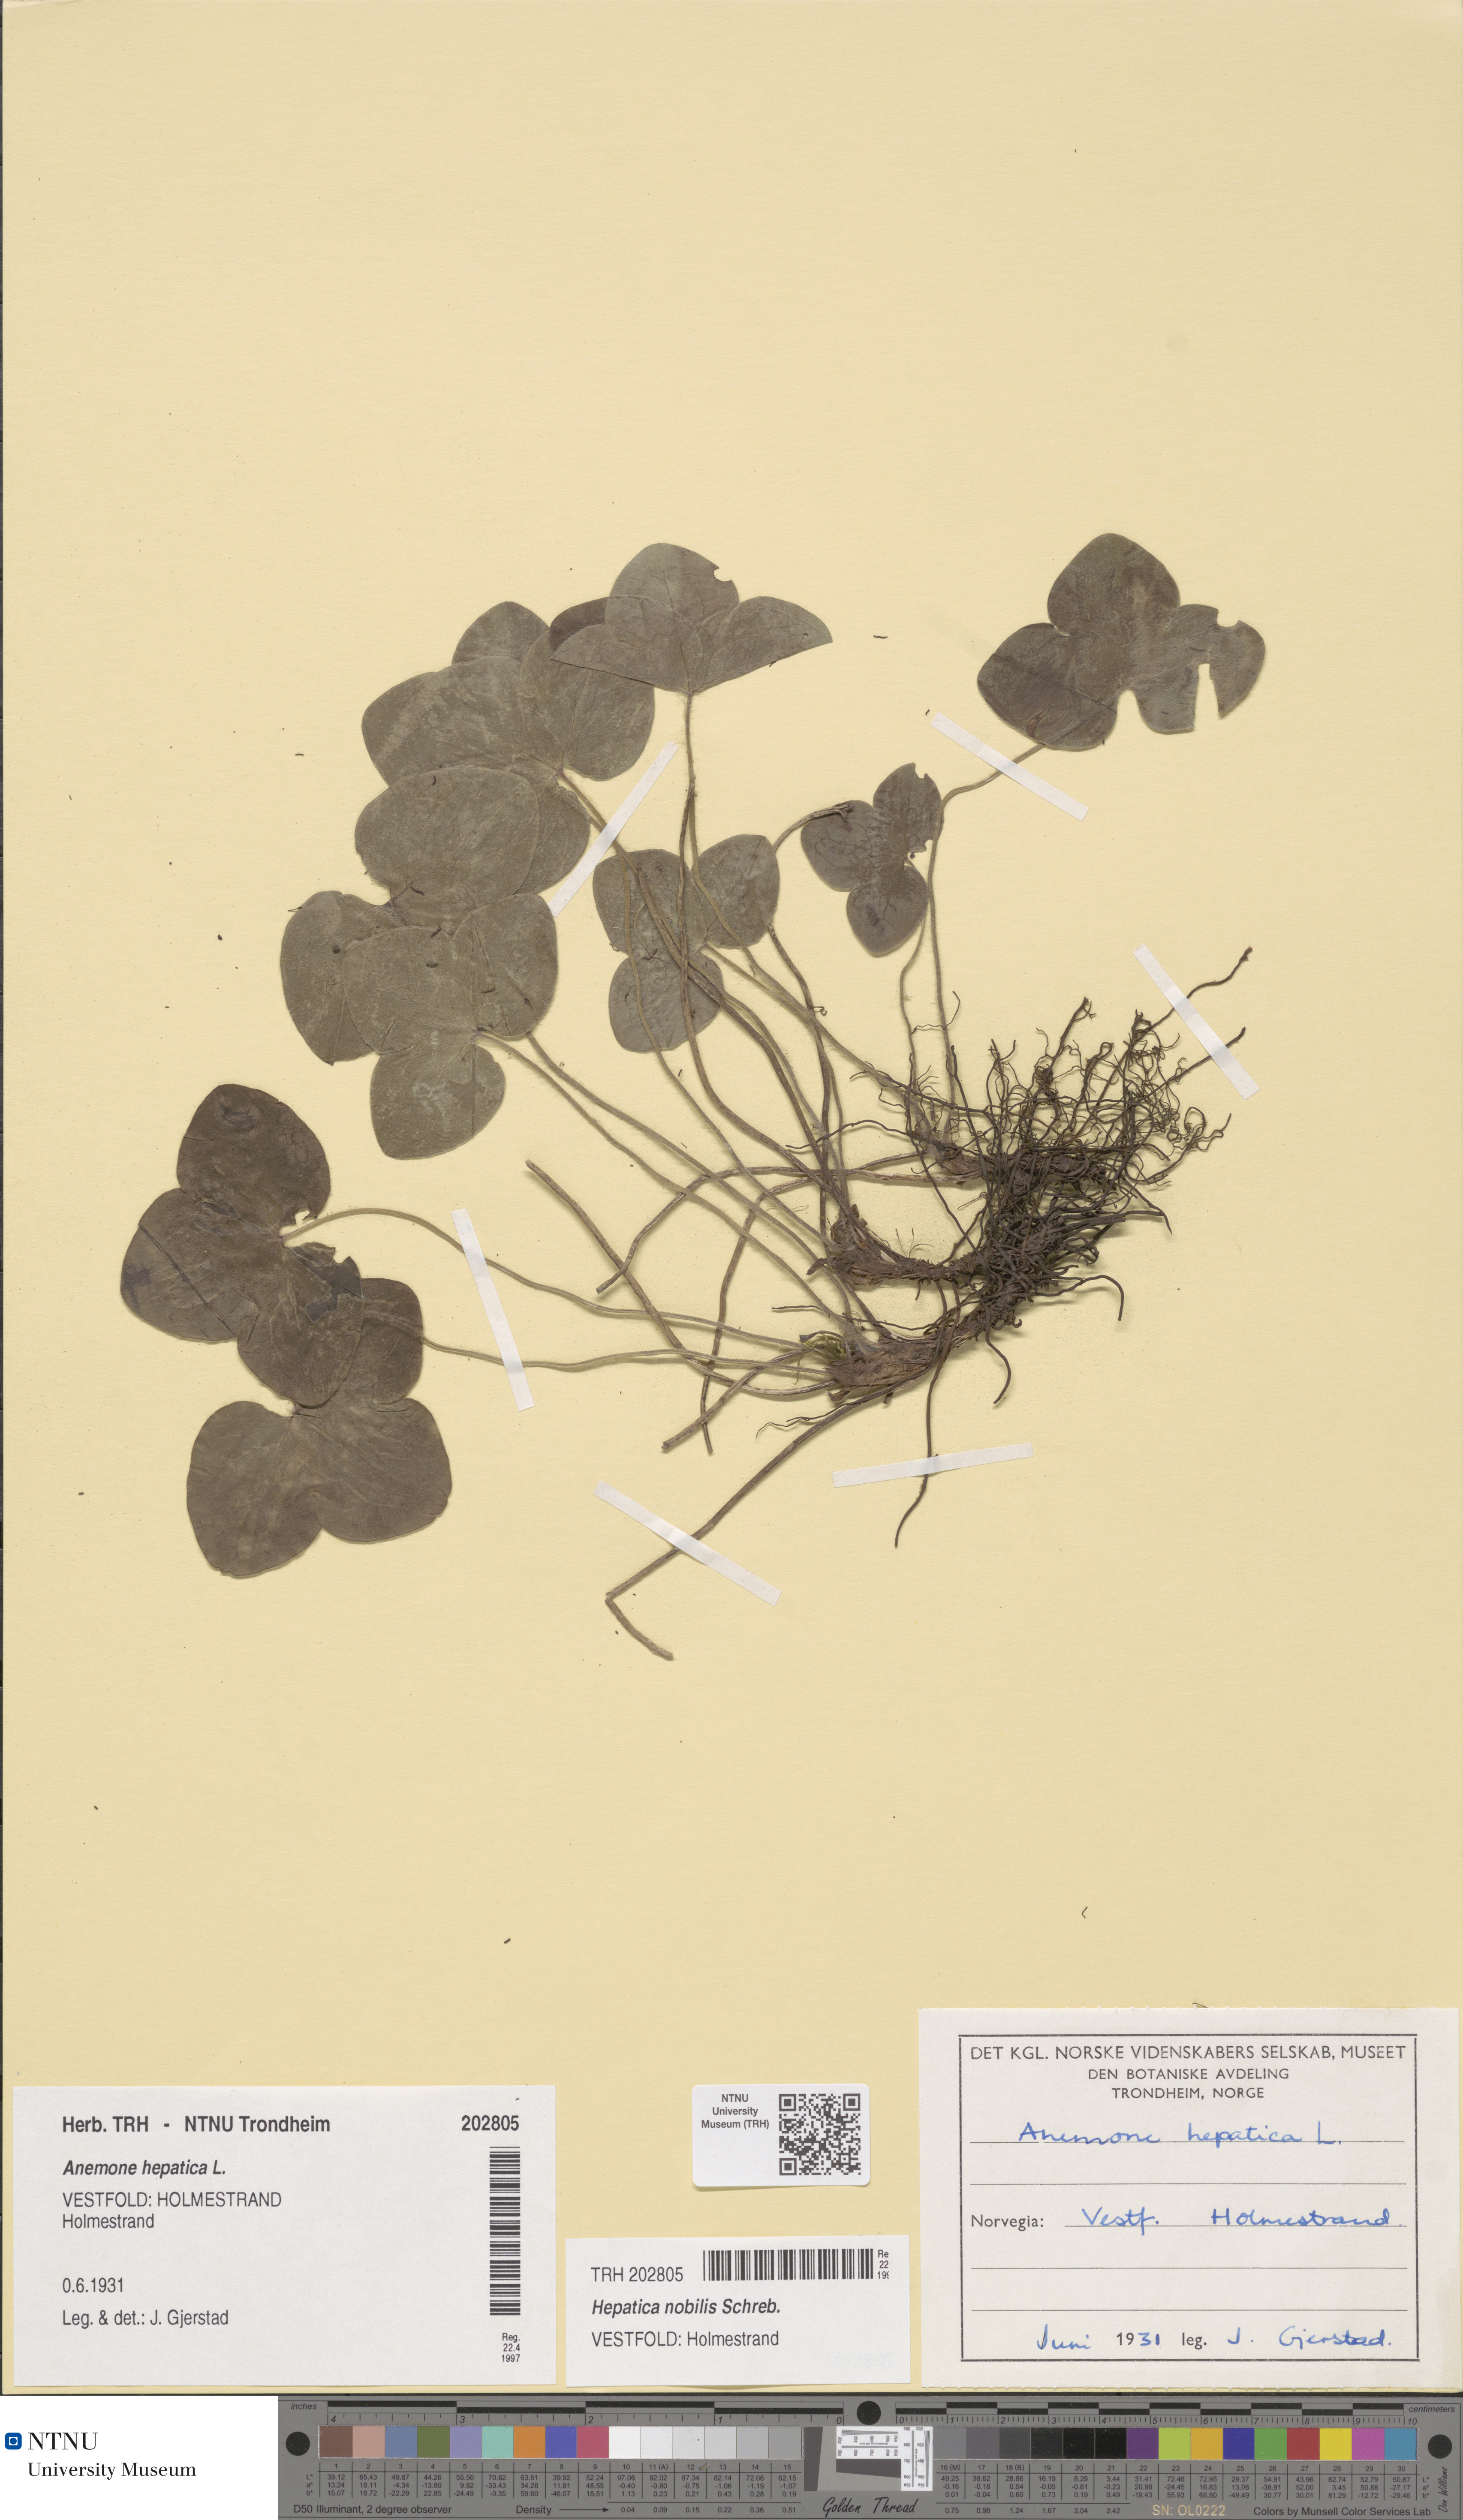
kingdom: Plantae
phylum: Tracheophyta
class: Magnoliopsida
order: Ranunculales
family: Ranunculaceae
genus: Hepatica
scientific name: Hepatica nobilis
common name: Liverleaf
